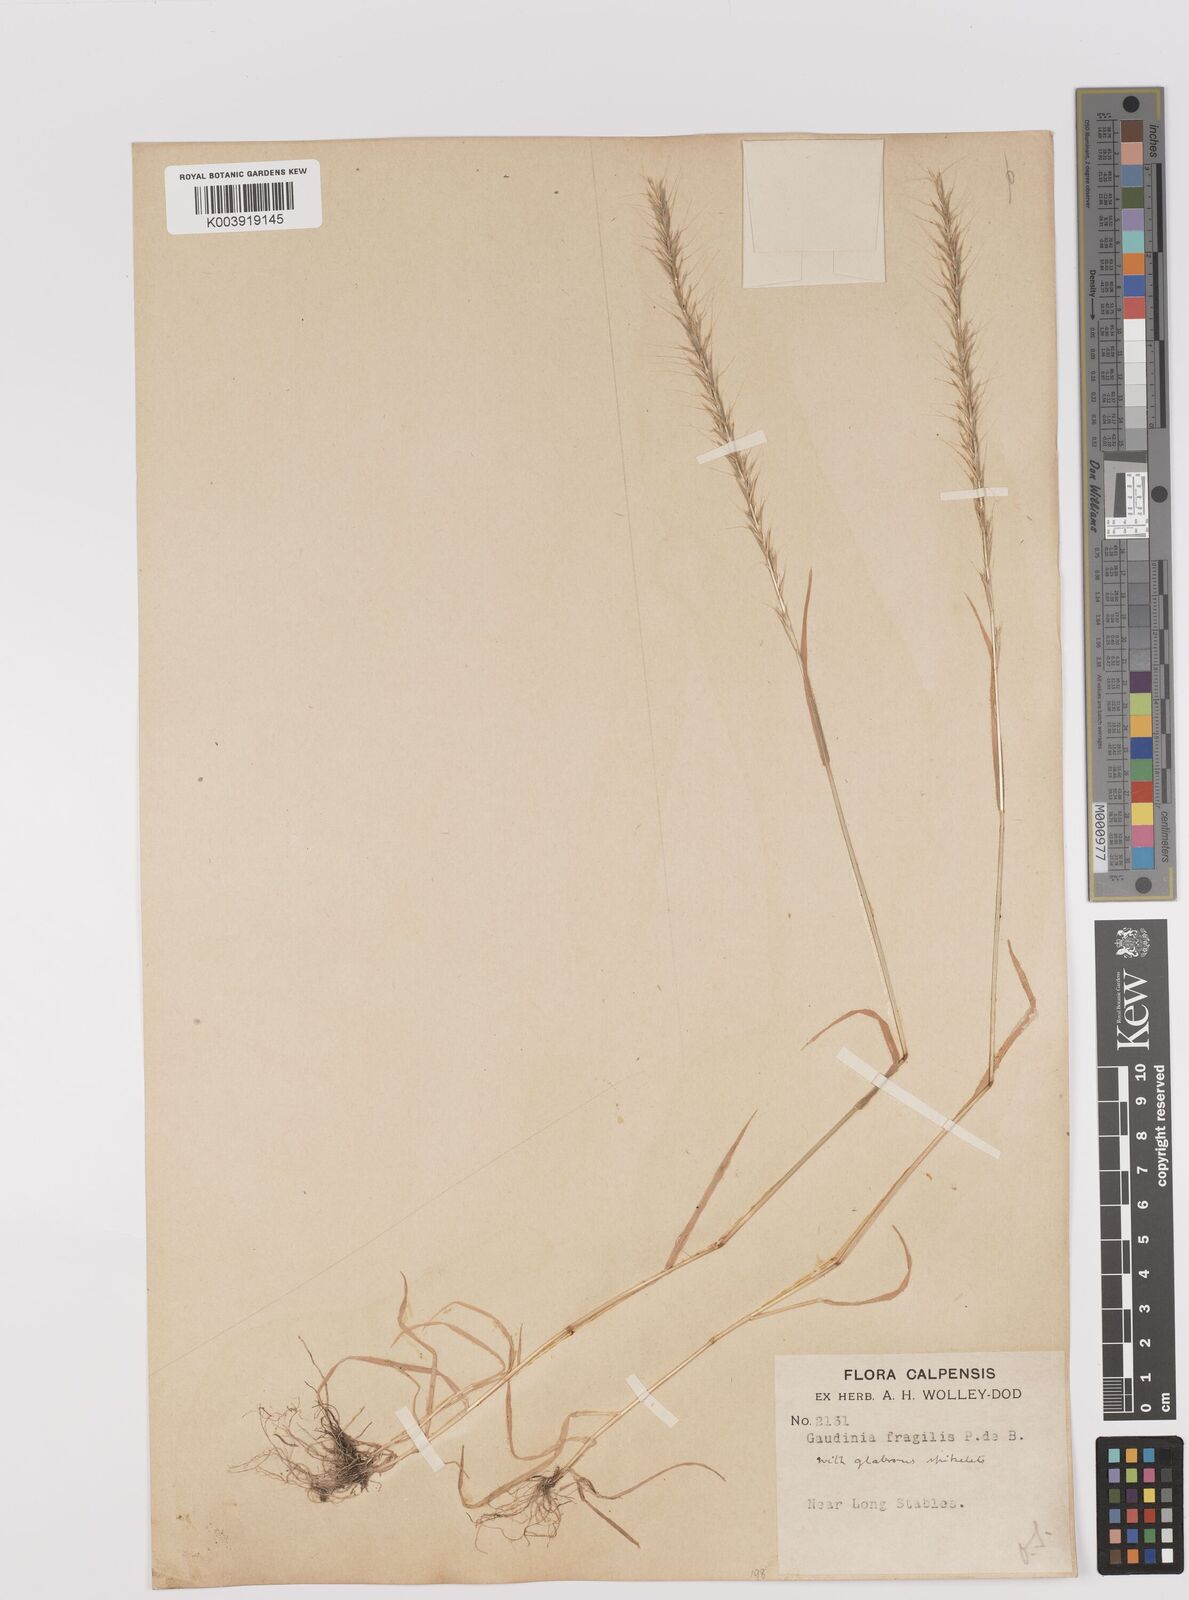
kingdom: Plantae
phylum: Tracheophyta
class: Liliopsida
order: Poales
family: Poaceae
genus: Gaudinia
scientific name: Gaudinia fragilis
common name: French oat-grass
